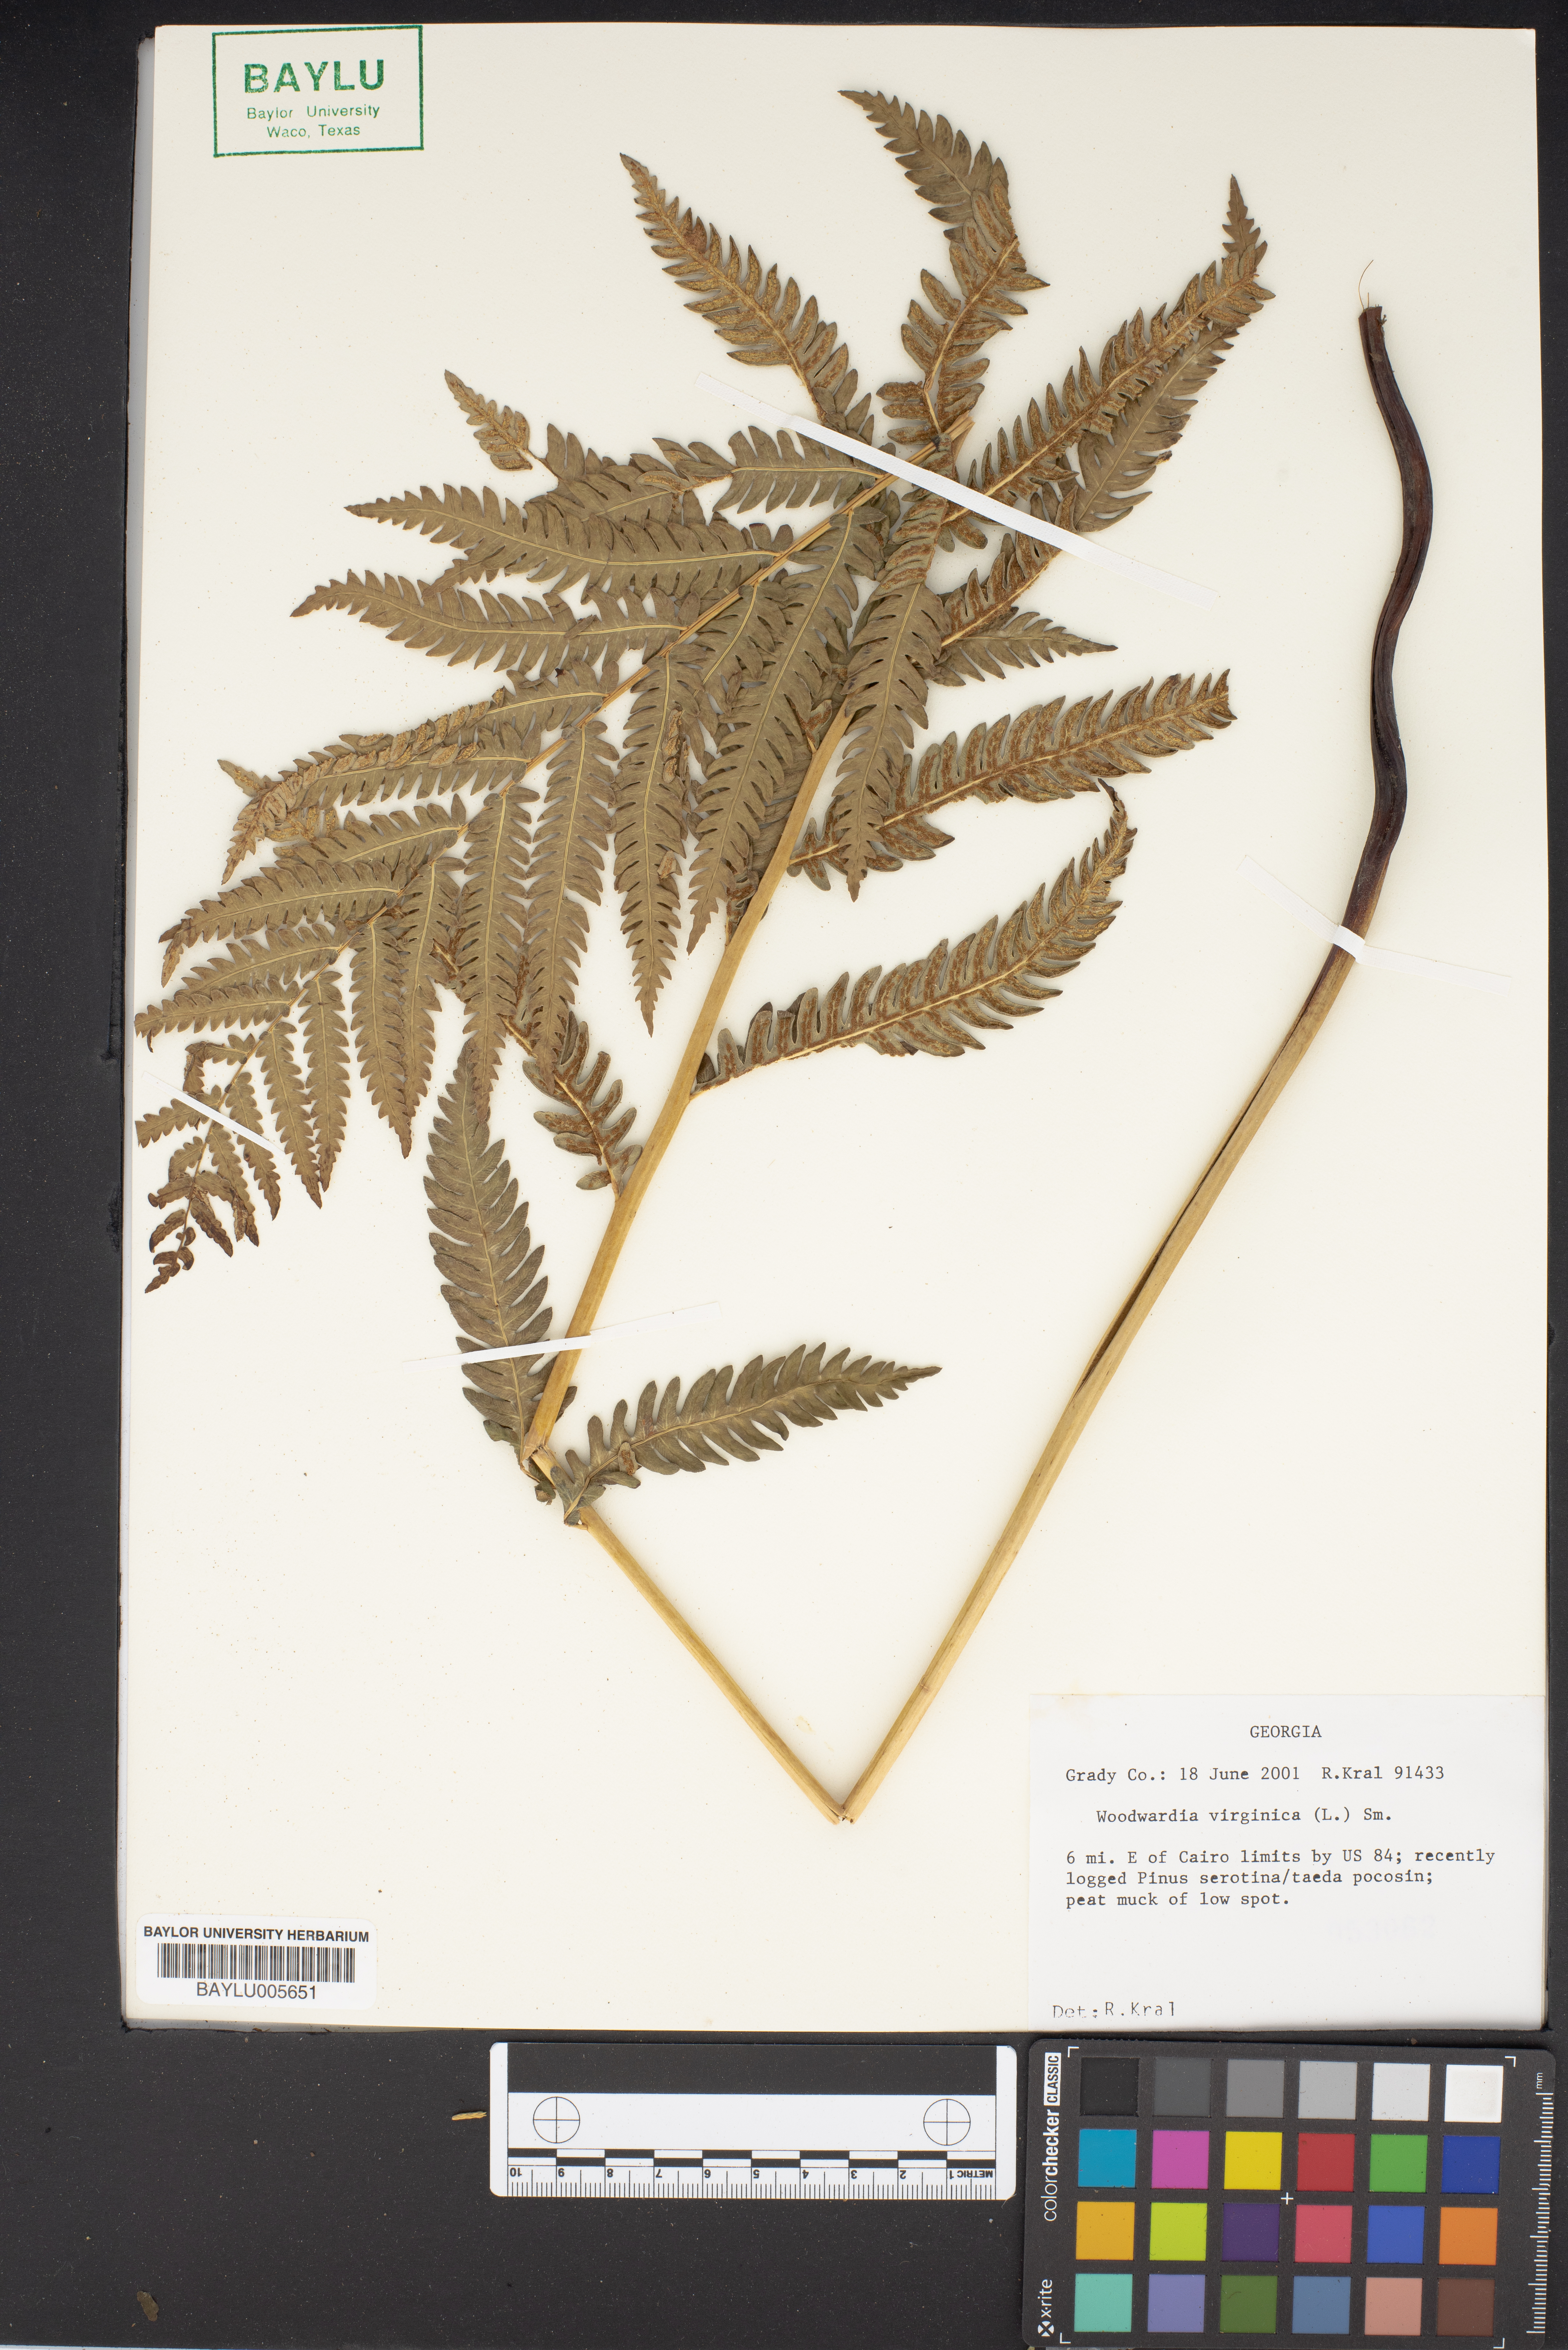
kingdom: Plantae
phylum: Tracheophyta
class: Polypodiopsida
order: Polypodiales
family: Blechnaceae
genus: Anchistea
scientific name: Anchistea virginica
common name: Virginia chain fern
